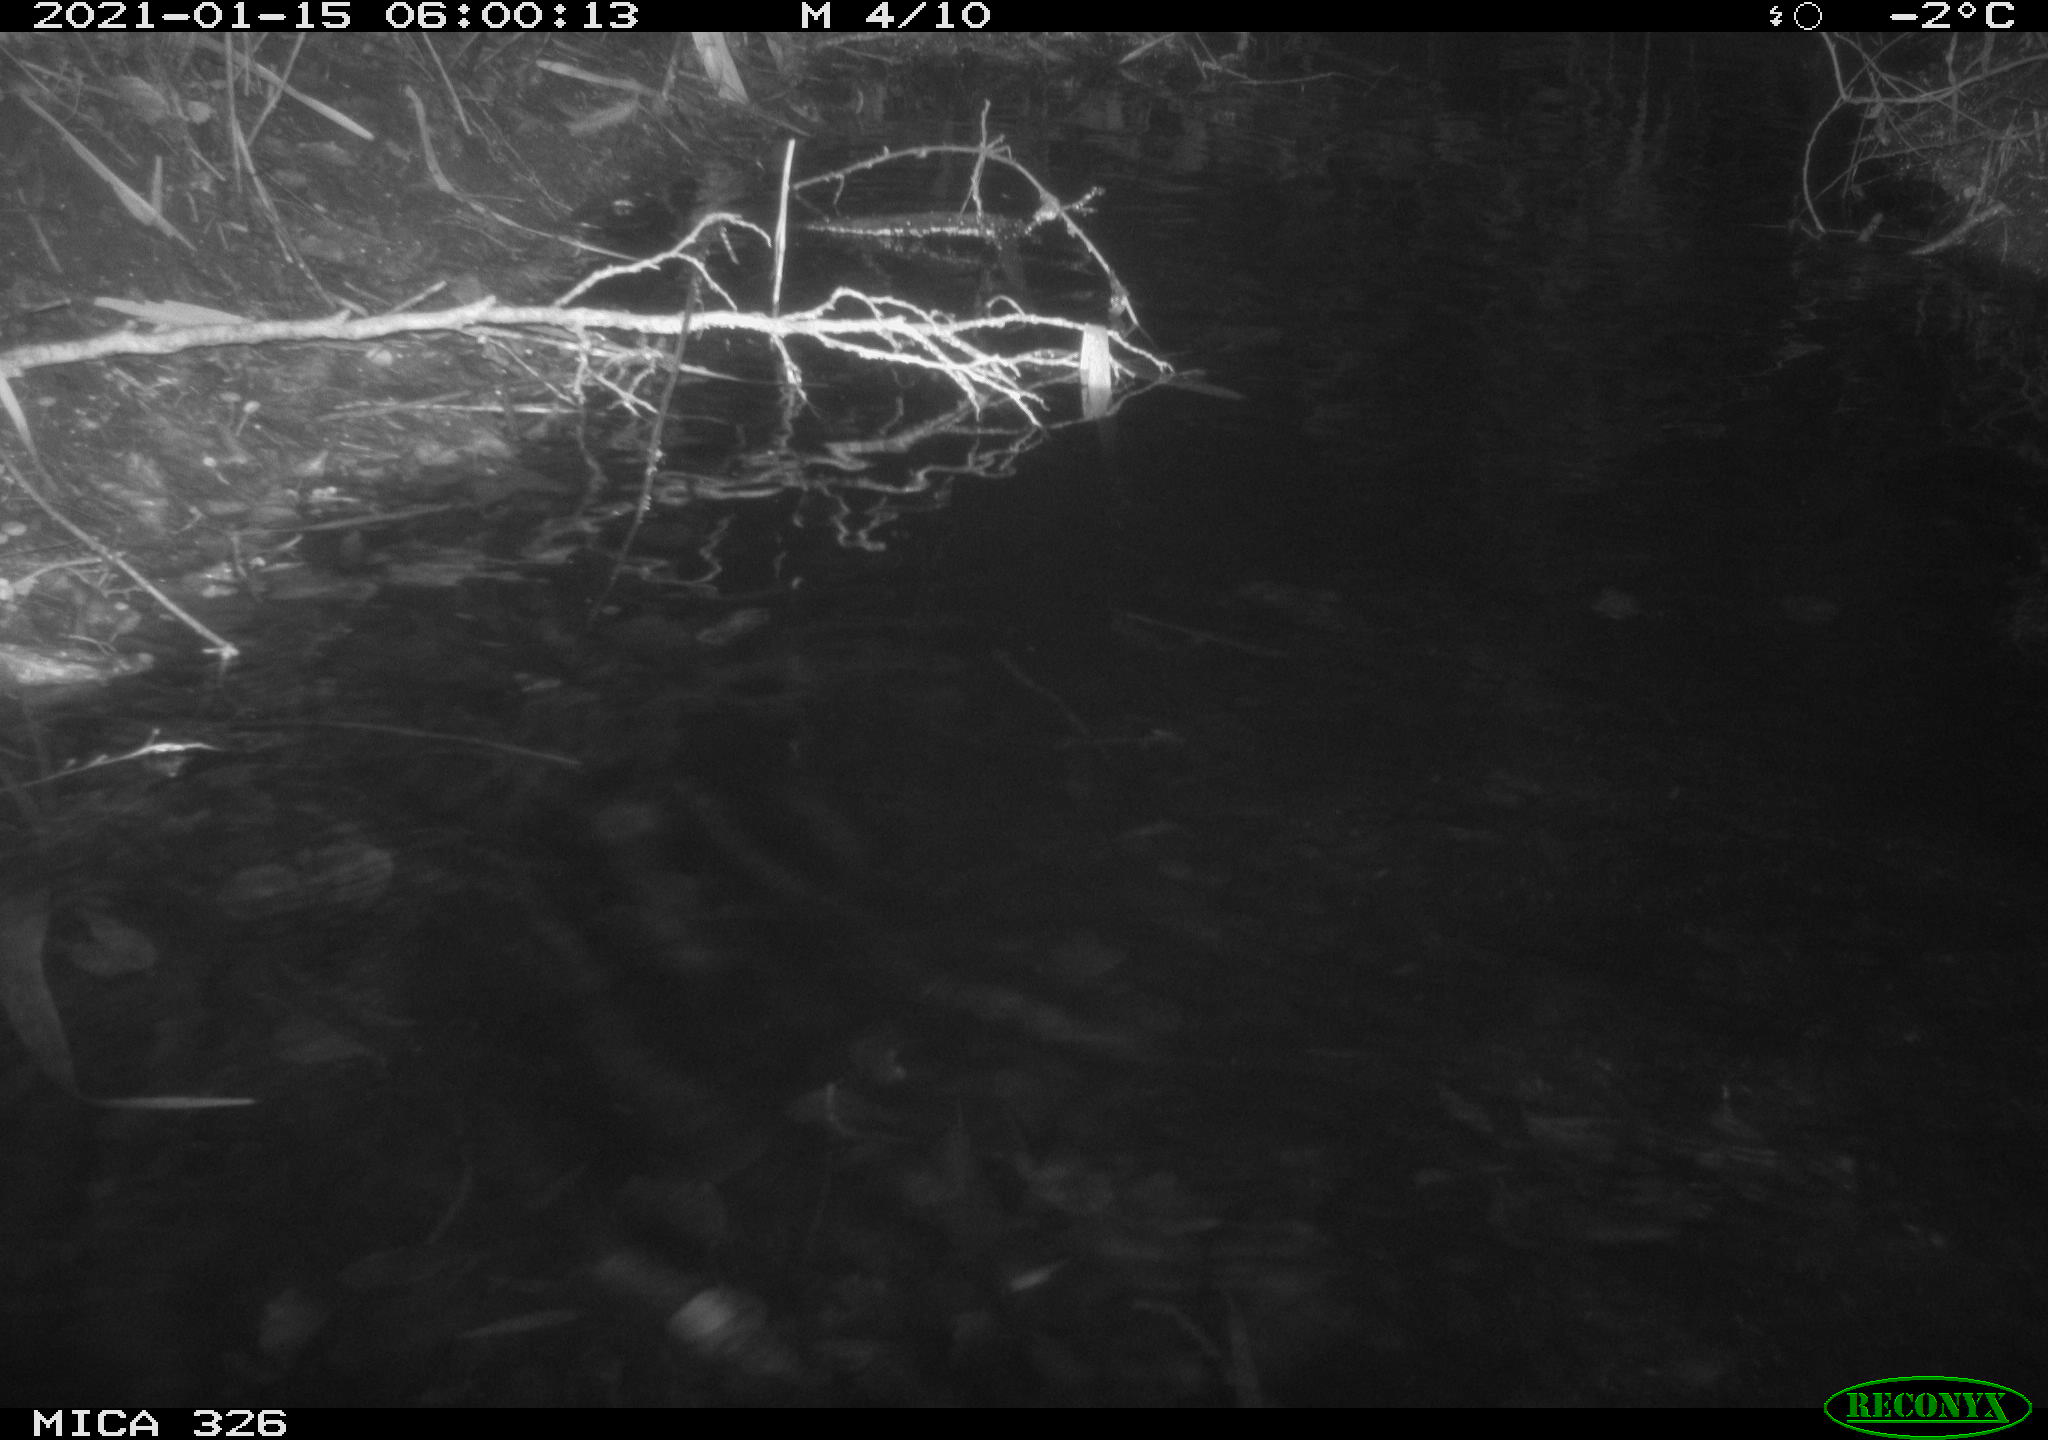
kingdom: Animalia
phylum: Chordata
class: Mammalia
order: Carnivora
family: Mustelidae
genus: Lutra
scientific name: Lutra lutra
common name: European otter
